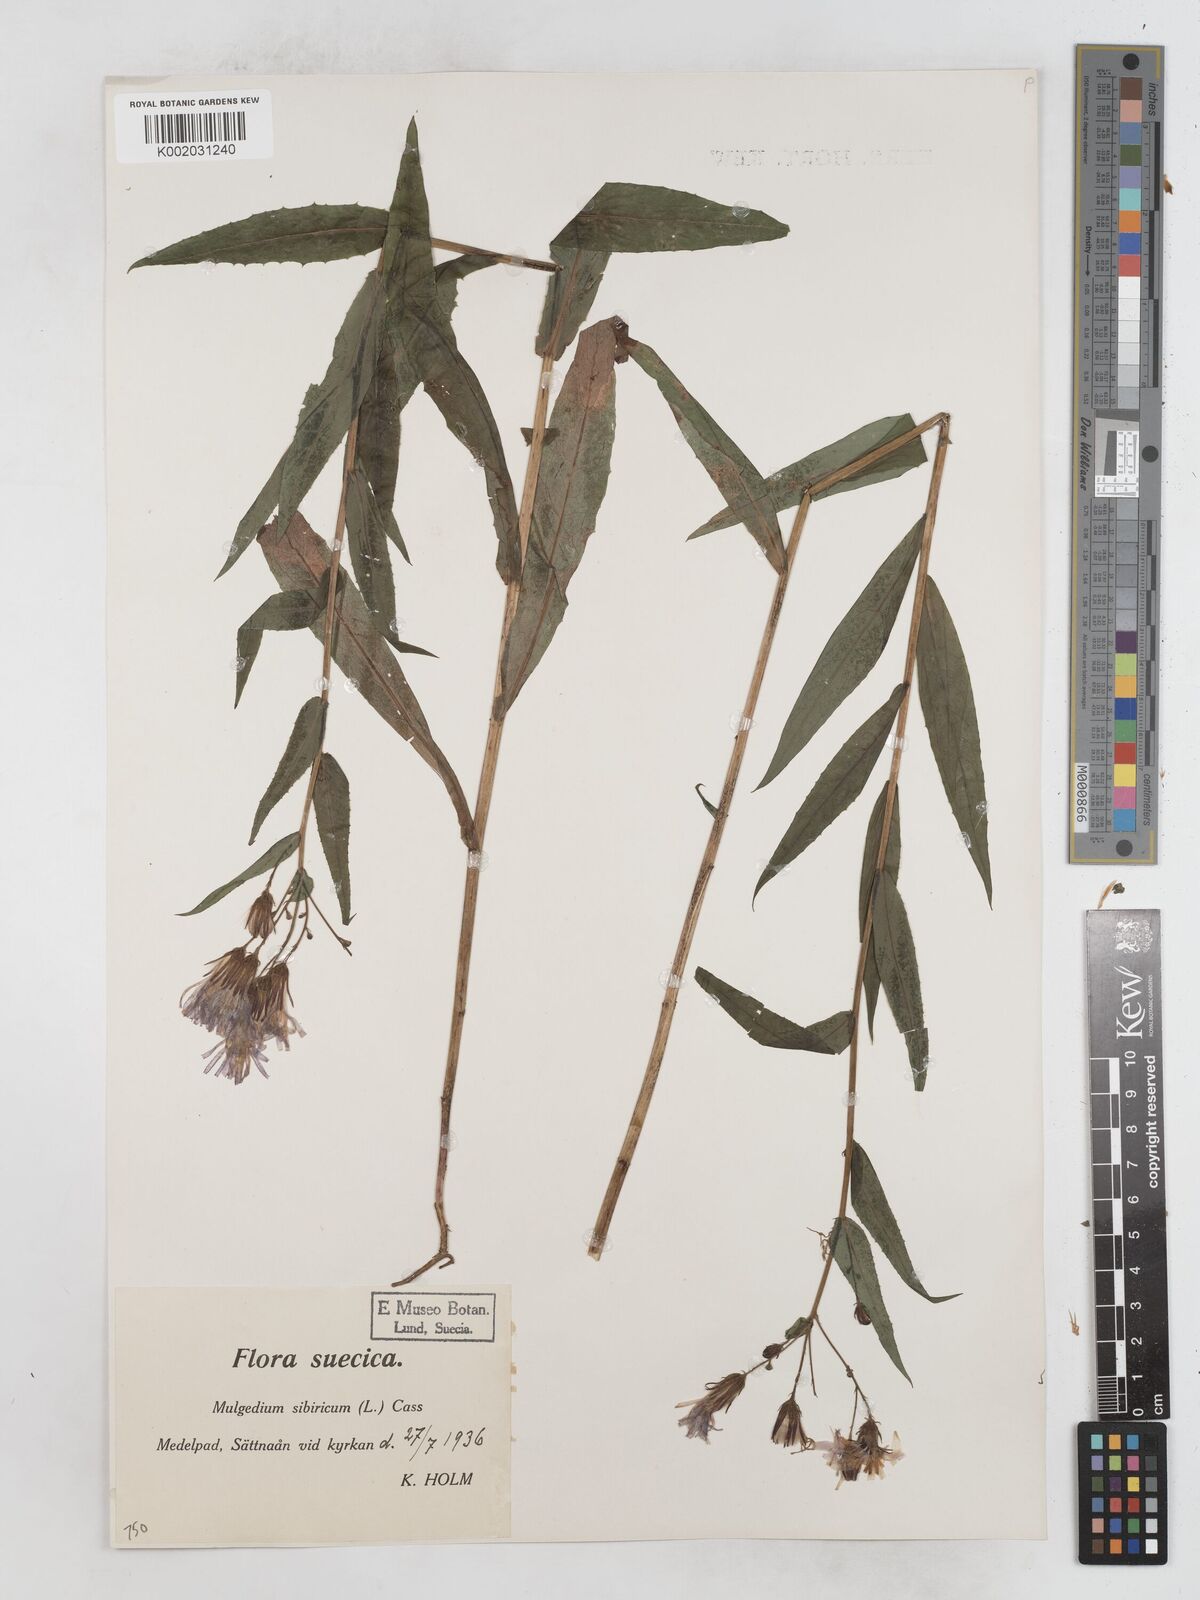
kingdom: Plantae
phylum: Tracheophyta
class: Magnoliopsida
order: Asterales
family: Asteraceae
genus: Lactuca
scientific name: Lactuca sibirica
